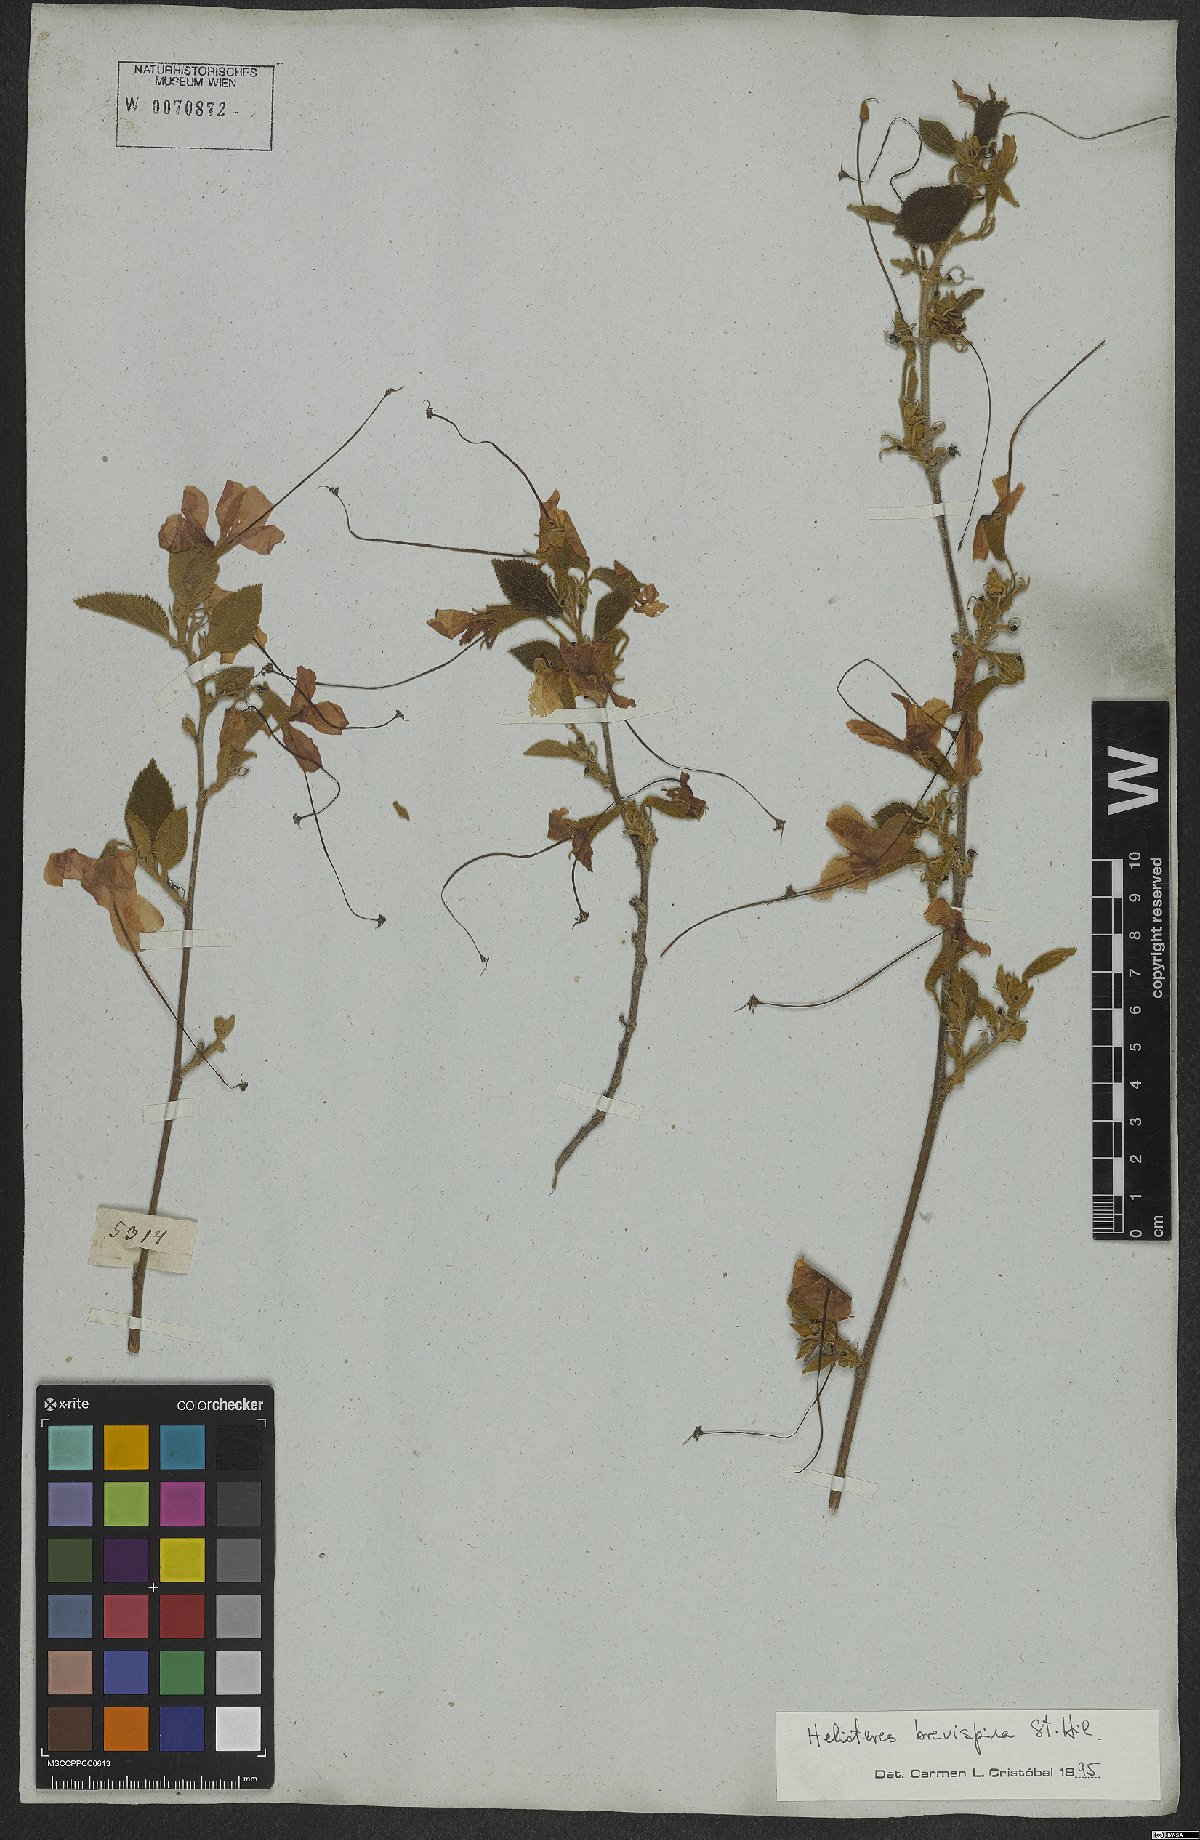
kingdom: Plantae
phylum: Tracheophyta
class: Magnoliopsida
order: Malvales
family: Malvaceae
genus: Helicteres
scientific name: Helicteres brevispira
